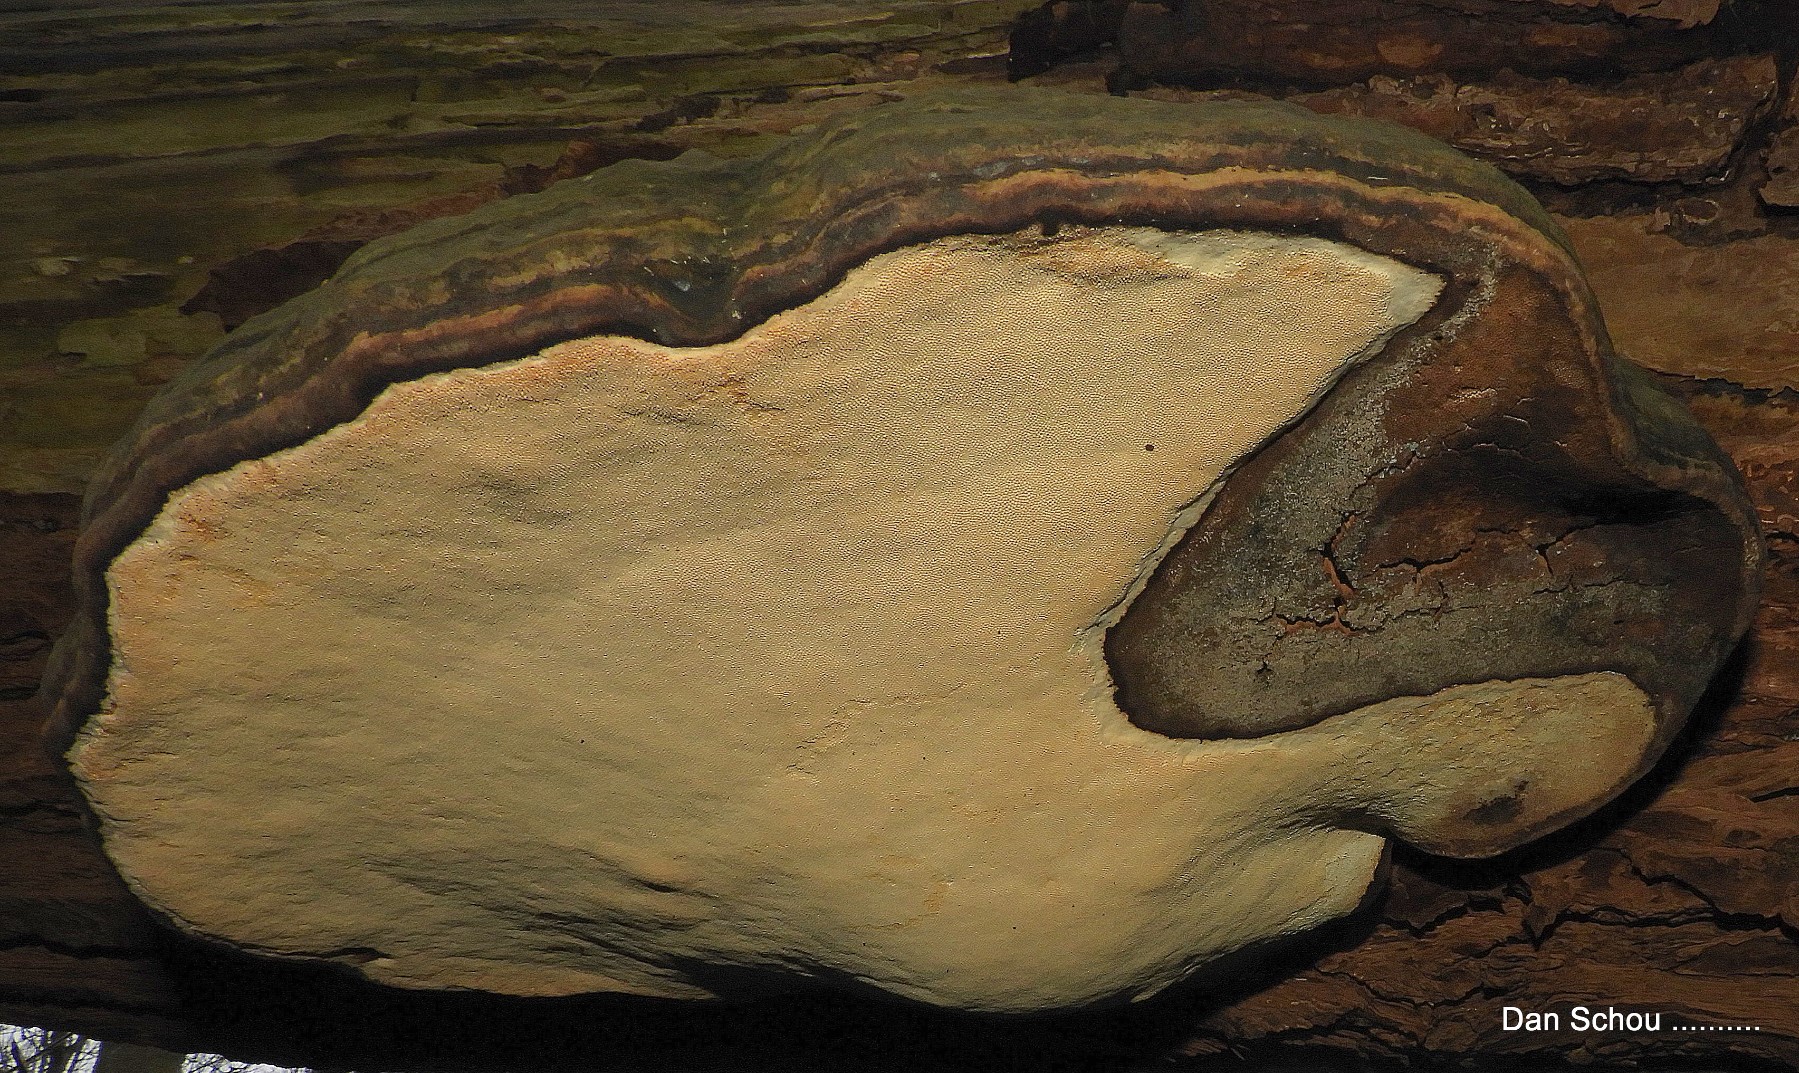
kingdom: Fungi
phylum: Basidiomycota
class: Agaricomycetes
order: Polyporales
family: Polyporaceae
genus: Fomes
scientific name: Fomes fomentarius
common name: tøndersvamp
